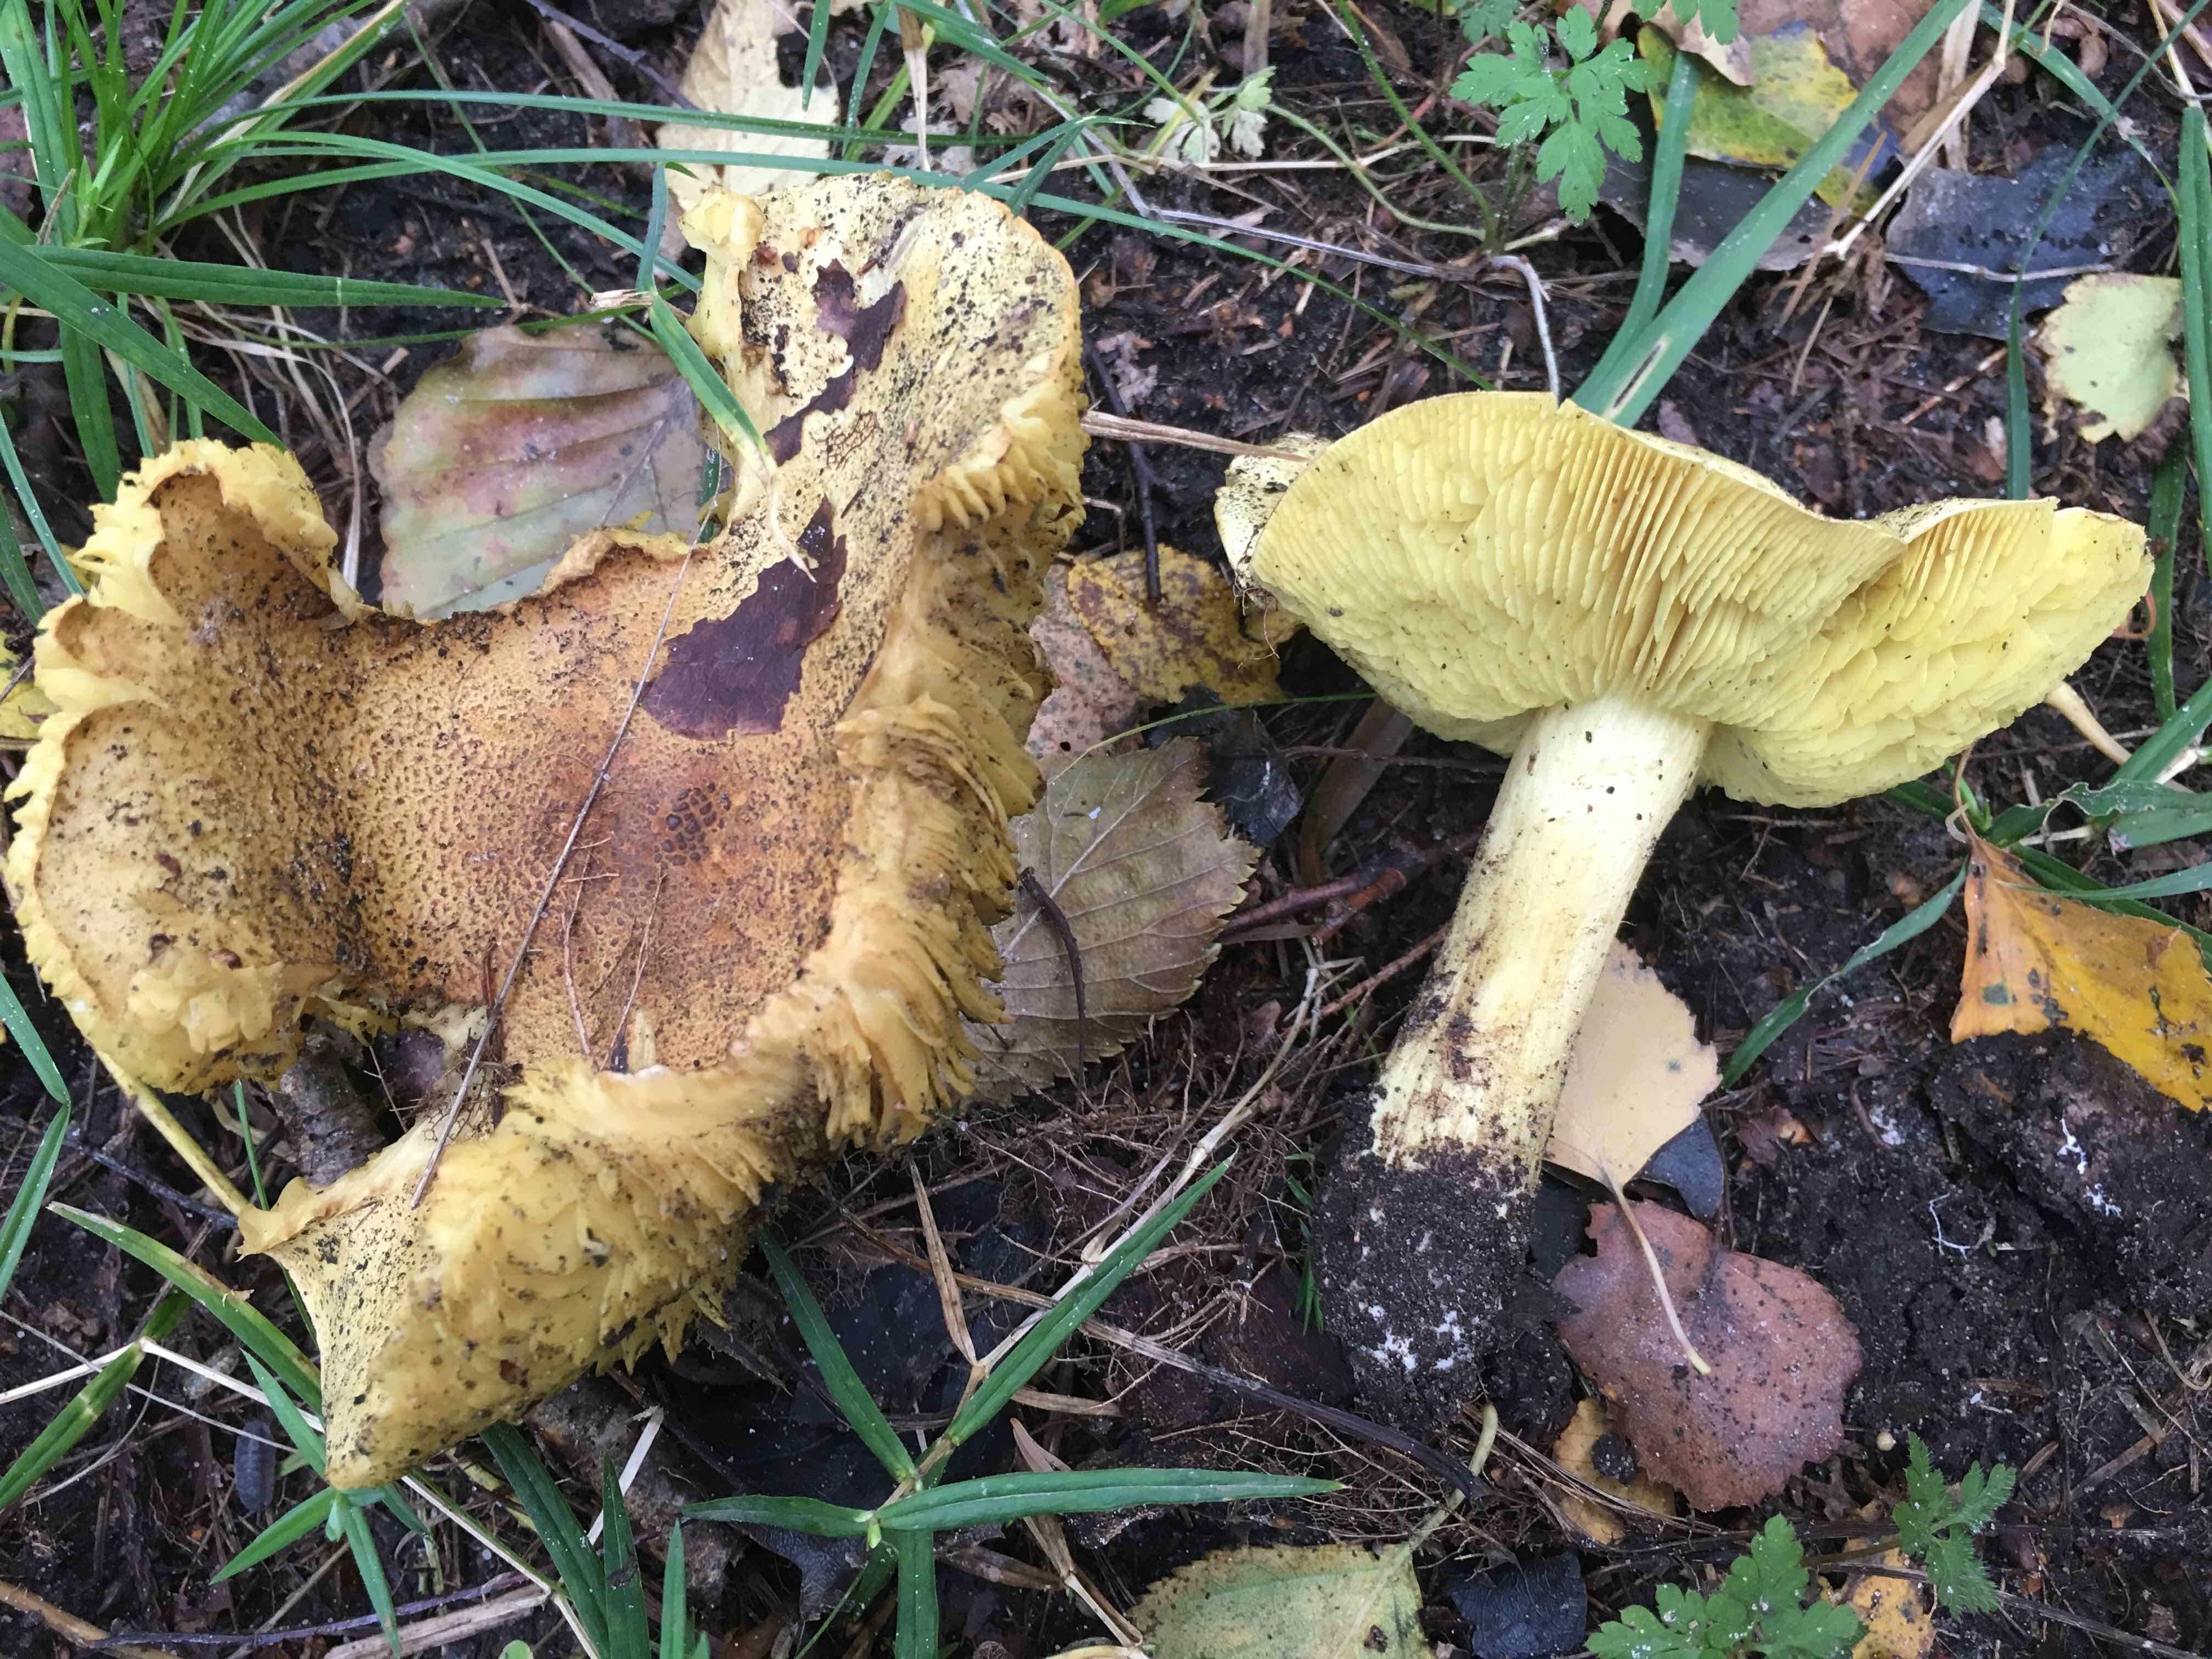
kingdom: Fungi
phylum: Basidiomycota
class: Agaricomycetes
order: Agaricales
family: Tricholomataceae
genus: Tricholoma
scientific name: Tricholoma frondosae
